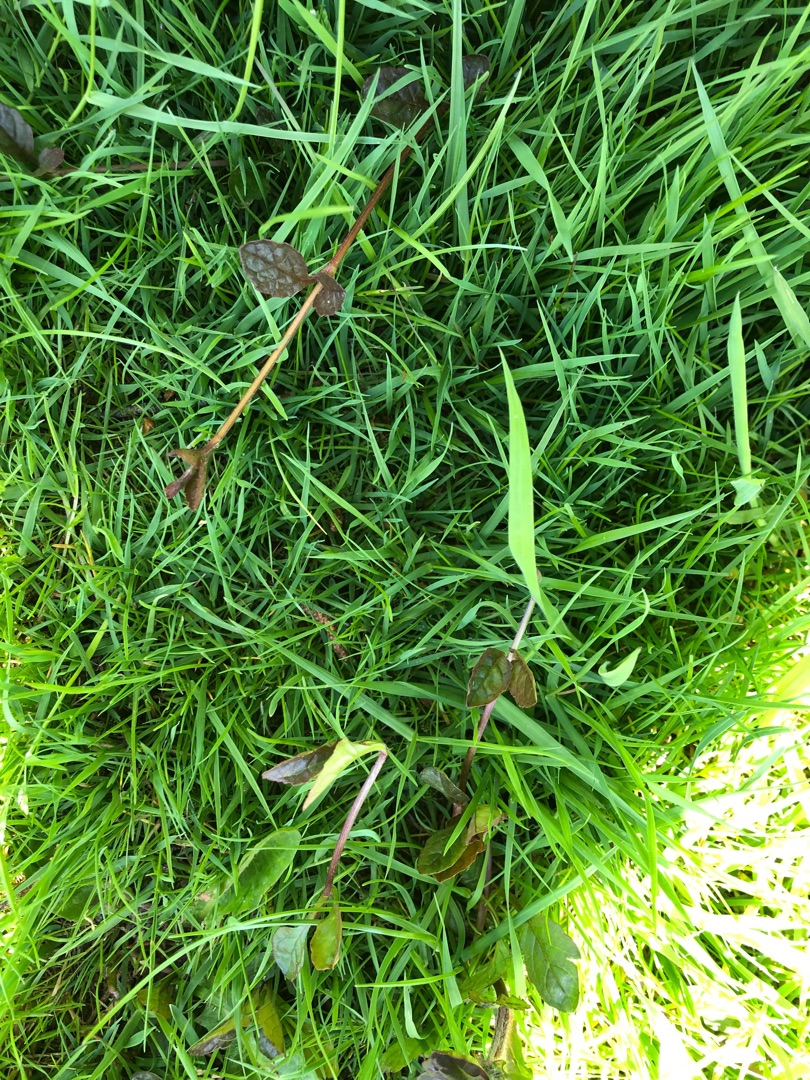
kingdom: Plantae
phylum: Tracheophyta
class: Magnoliopsida
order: Lamiales
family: Lamiaceae
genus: Ajuga
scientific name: Ajuga reptans
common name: Krybende læbeløs
